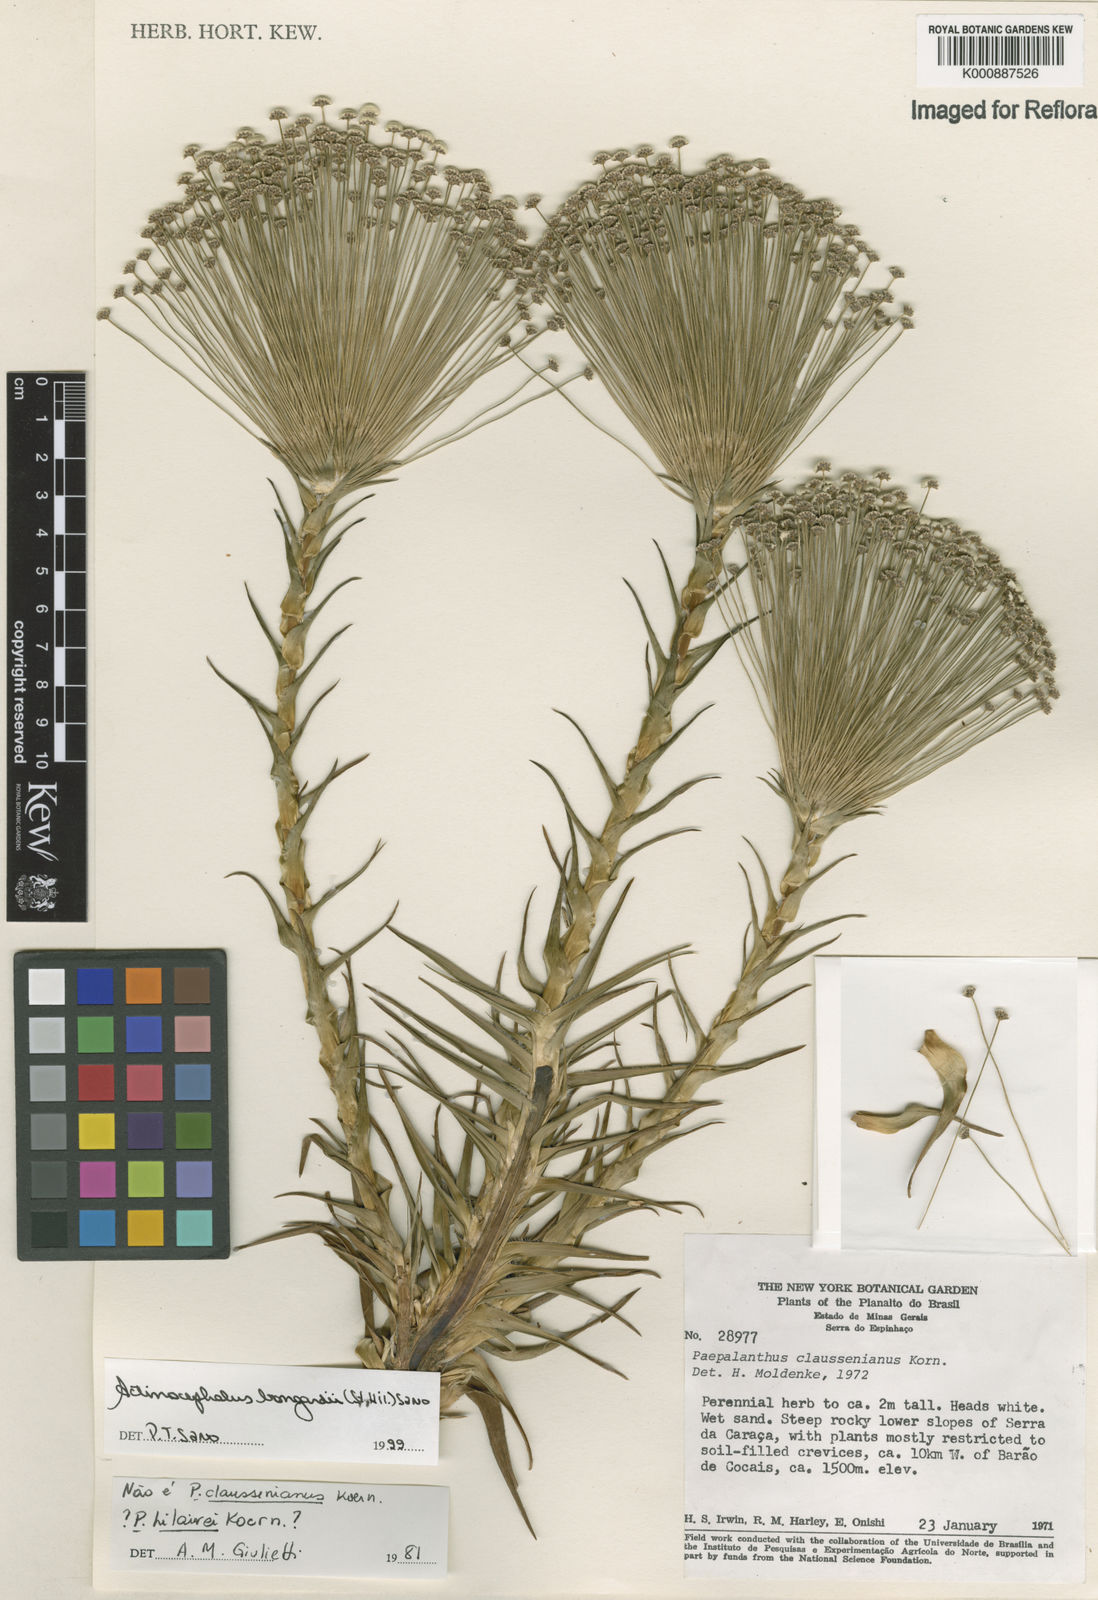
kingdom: Plantae
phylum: Tracheophyta
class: Liliopsida
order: Poales
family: Eriocaulaceae
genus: Paepalanthus
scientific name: Paepalanthus hilairei
